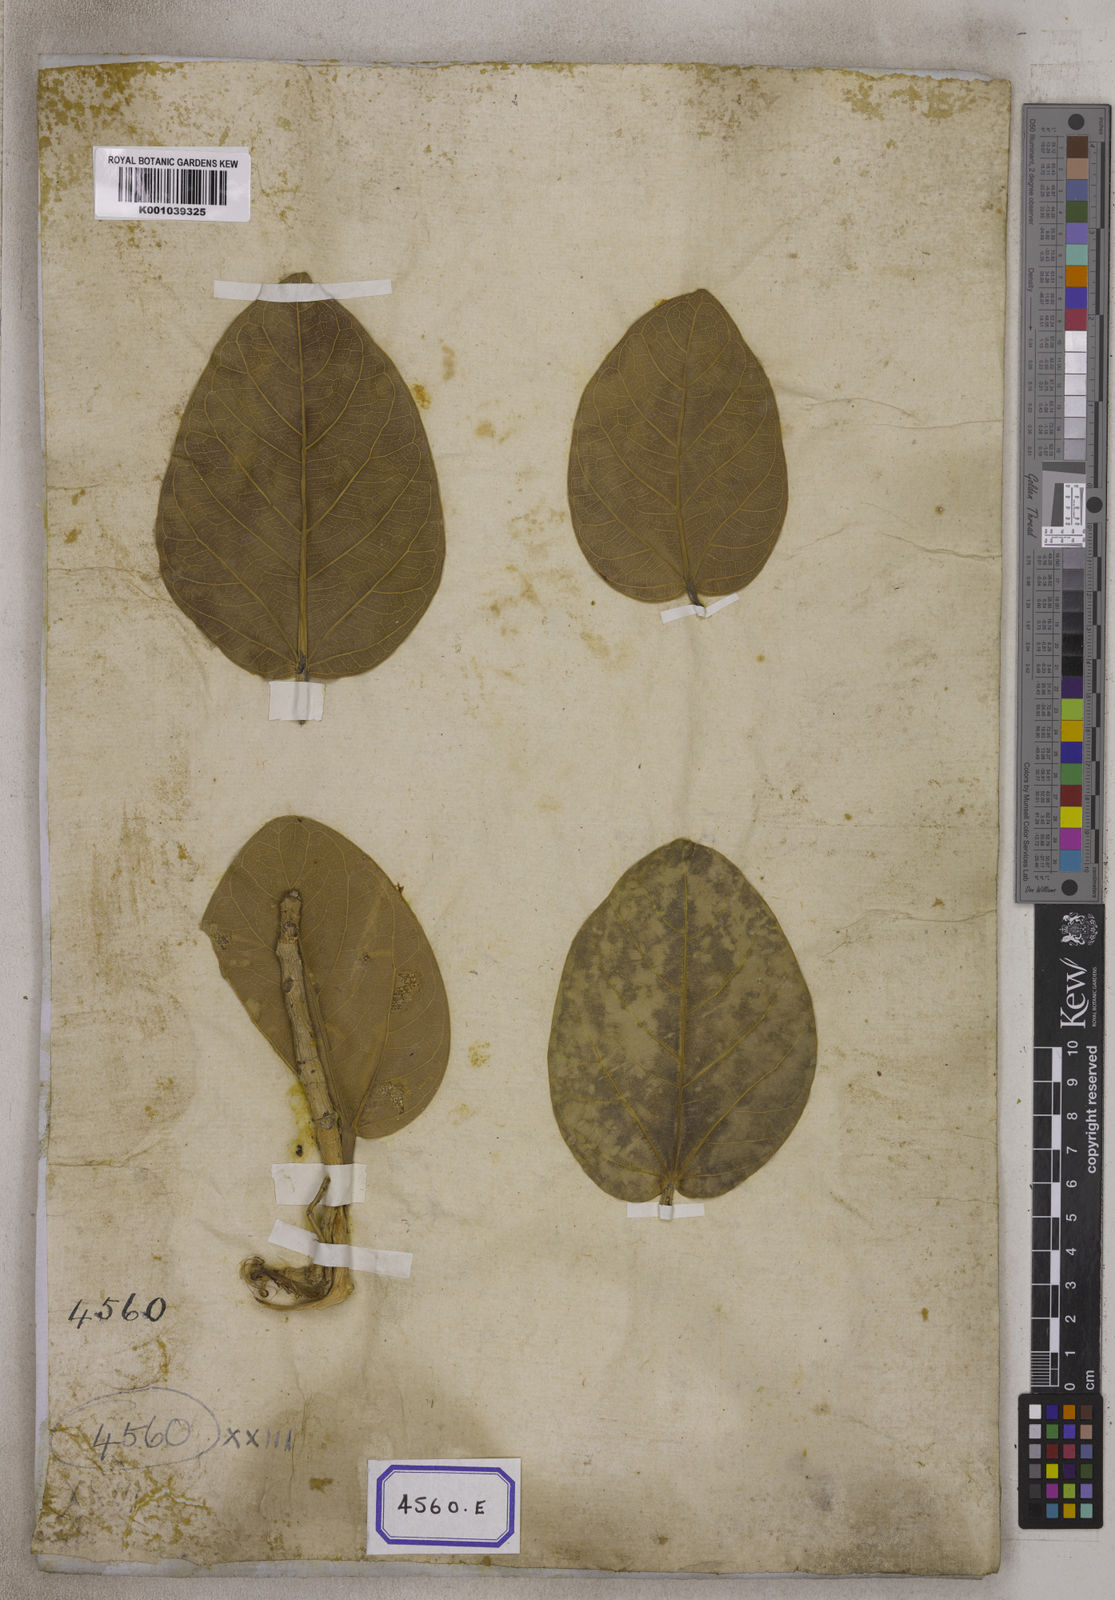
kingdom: Plantae
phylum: Tracheophyta
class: Magnoliopsida
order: Rosales
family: Moraceae
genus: Ficus
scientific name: Ficus
